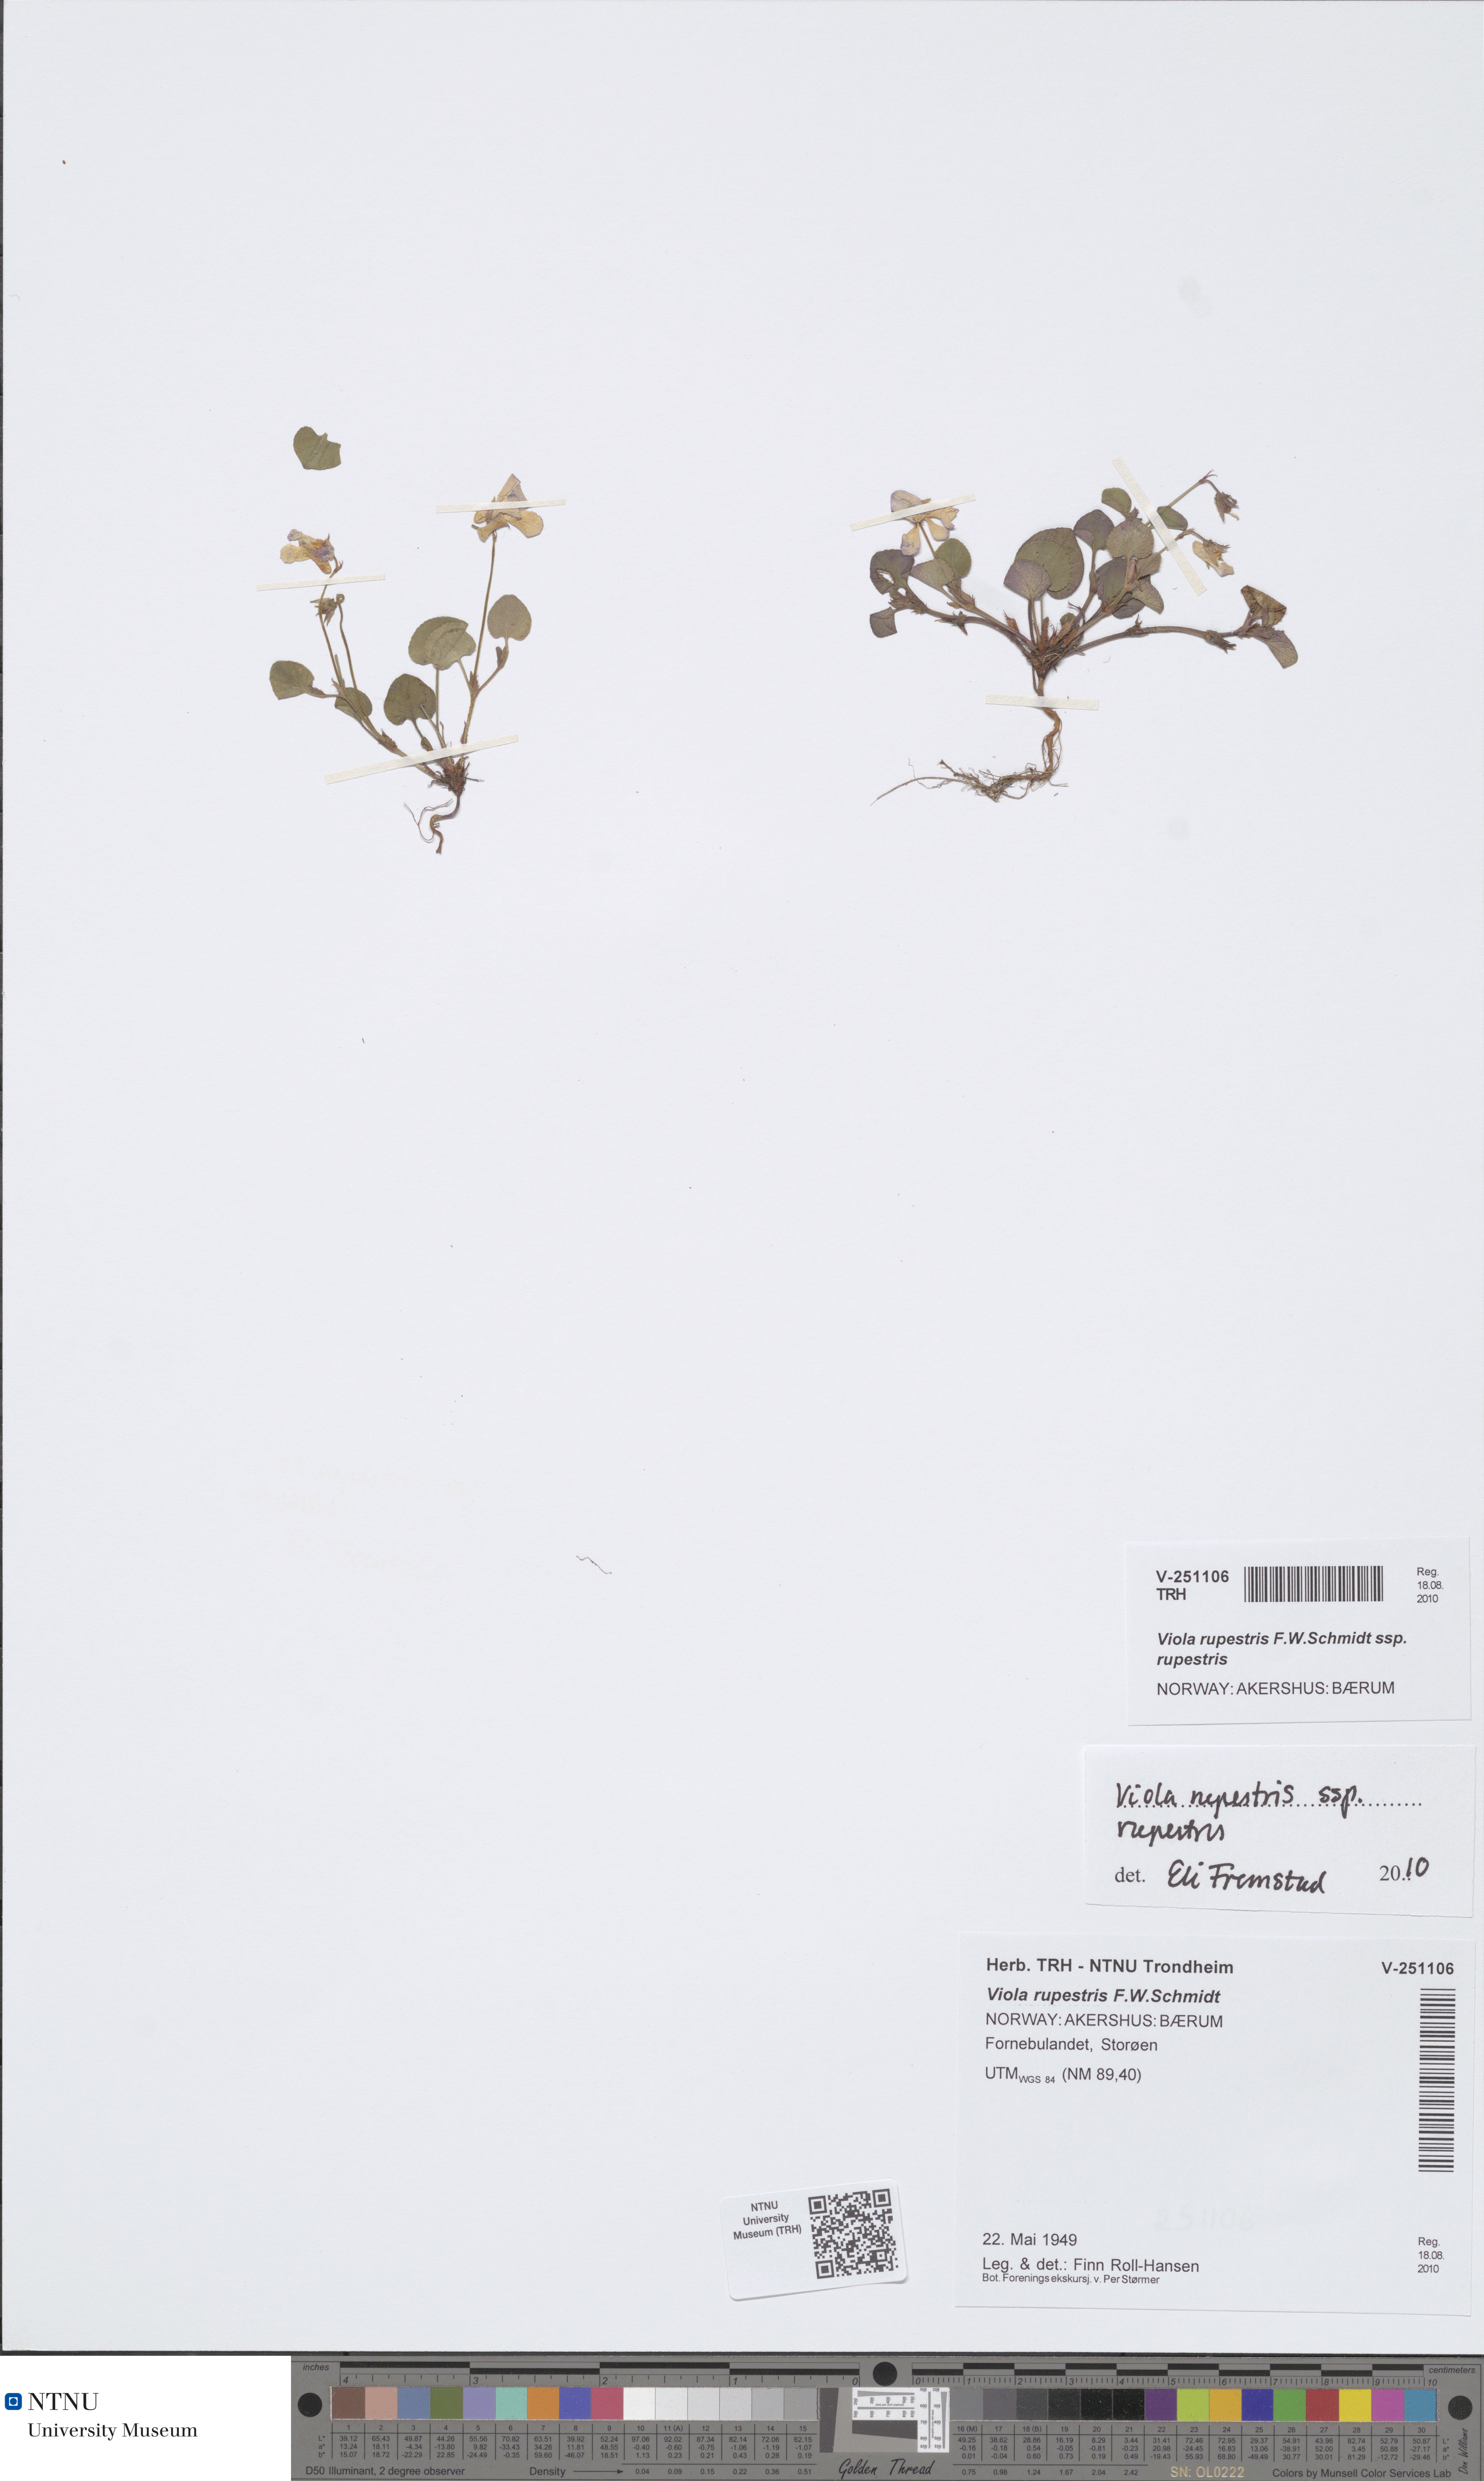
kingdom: Plantae
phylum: Tracheophyta
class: Magnoliopsida
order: Malpighiales
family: Violaceae
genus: Viola
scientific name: Viola rupestris
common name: Teesdale violet
